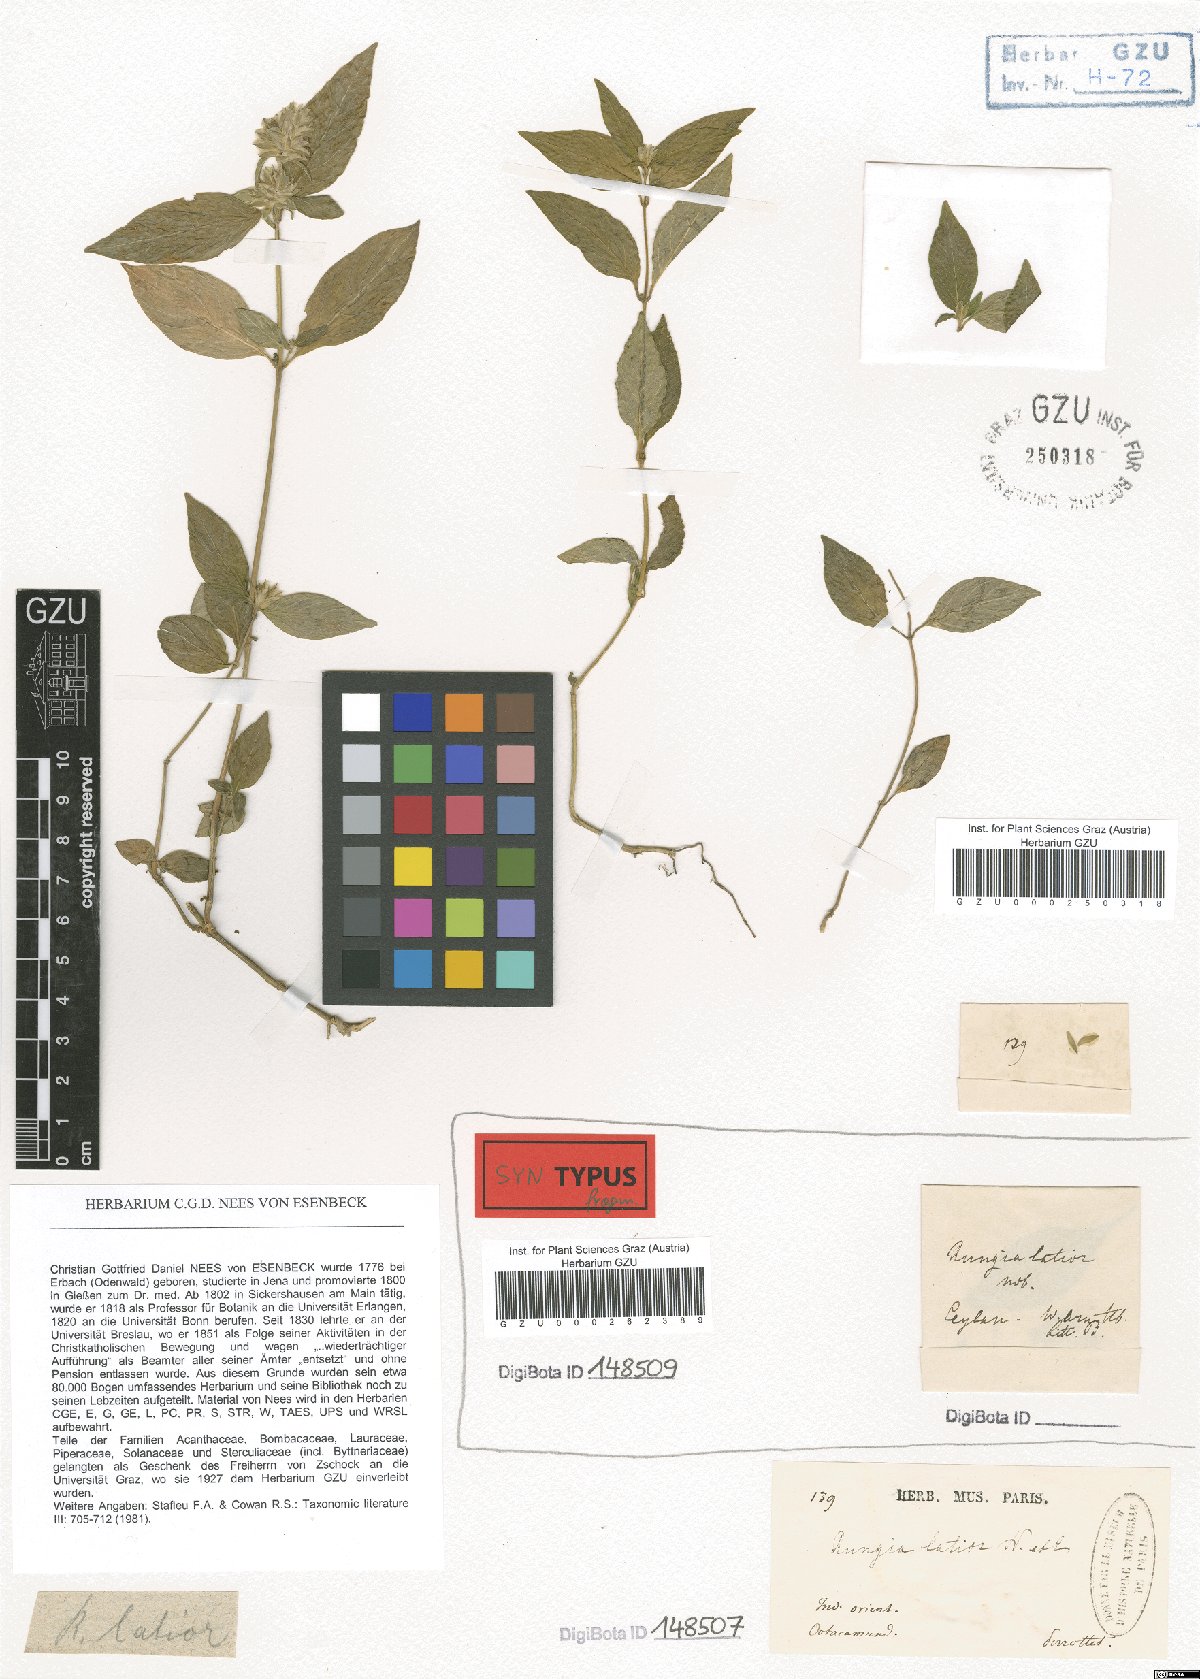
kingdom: Plantae
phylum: Tracheophyta
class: Magnoliopsida
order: Lamiales
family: Acanthaceae
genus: Rungia
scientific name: Rungia latior
